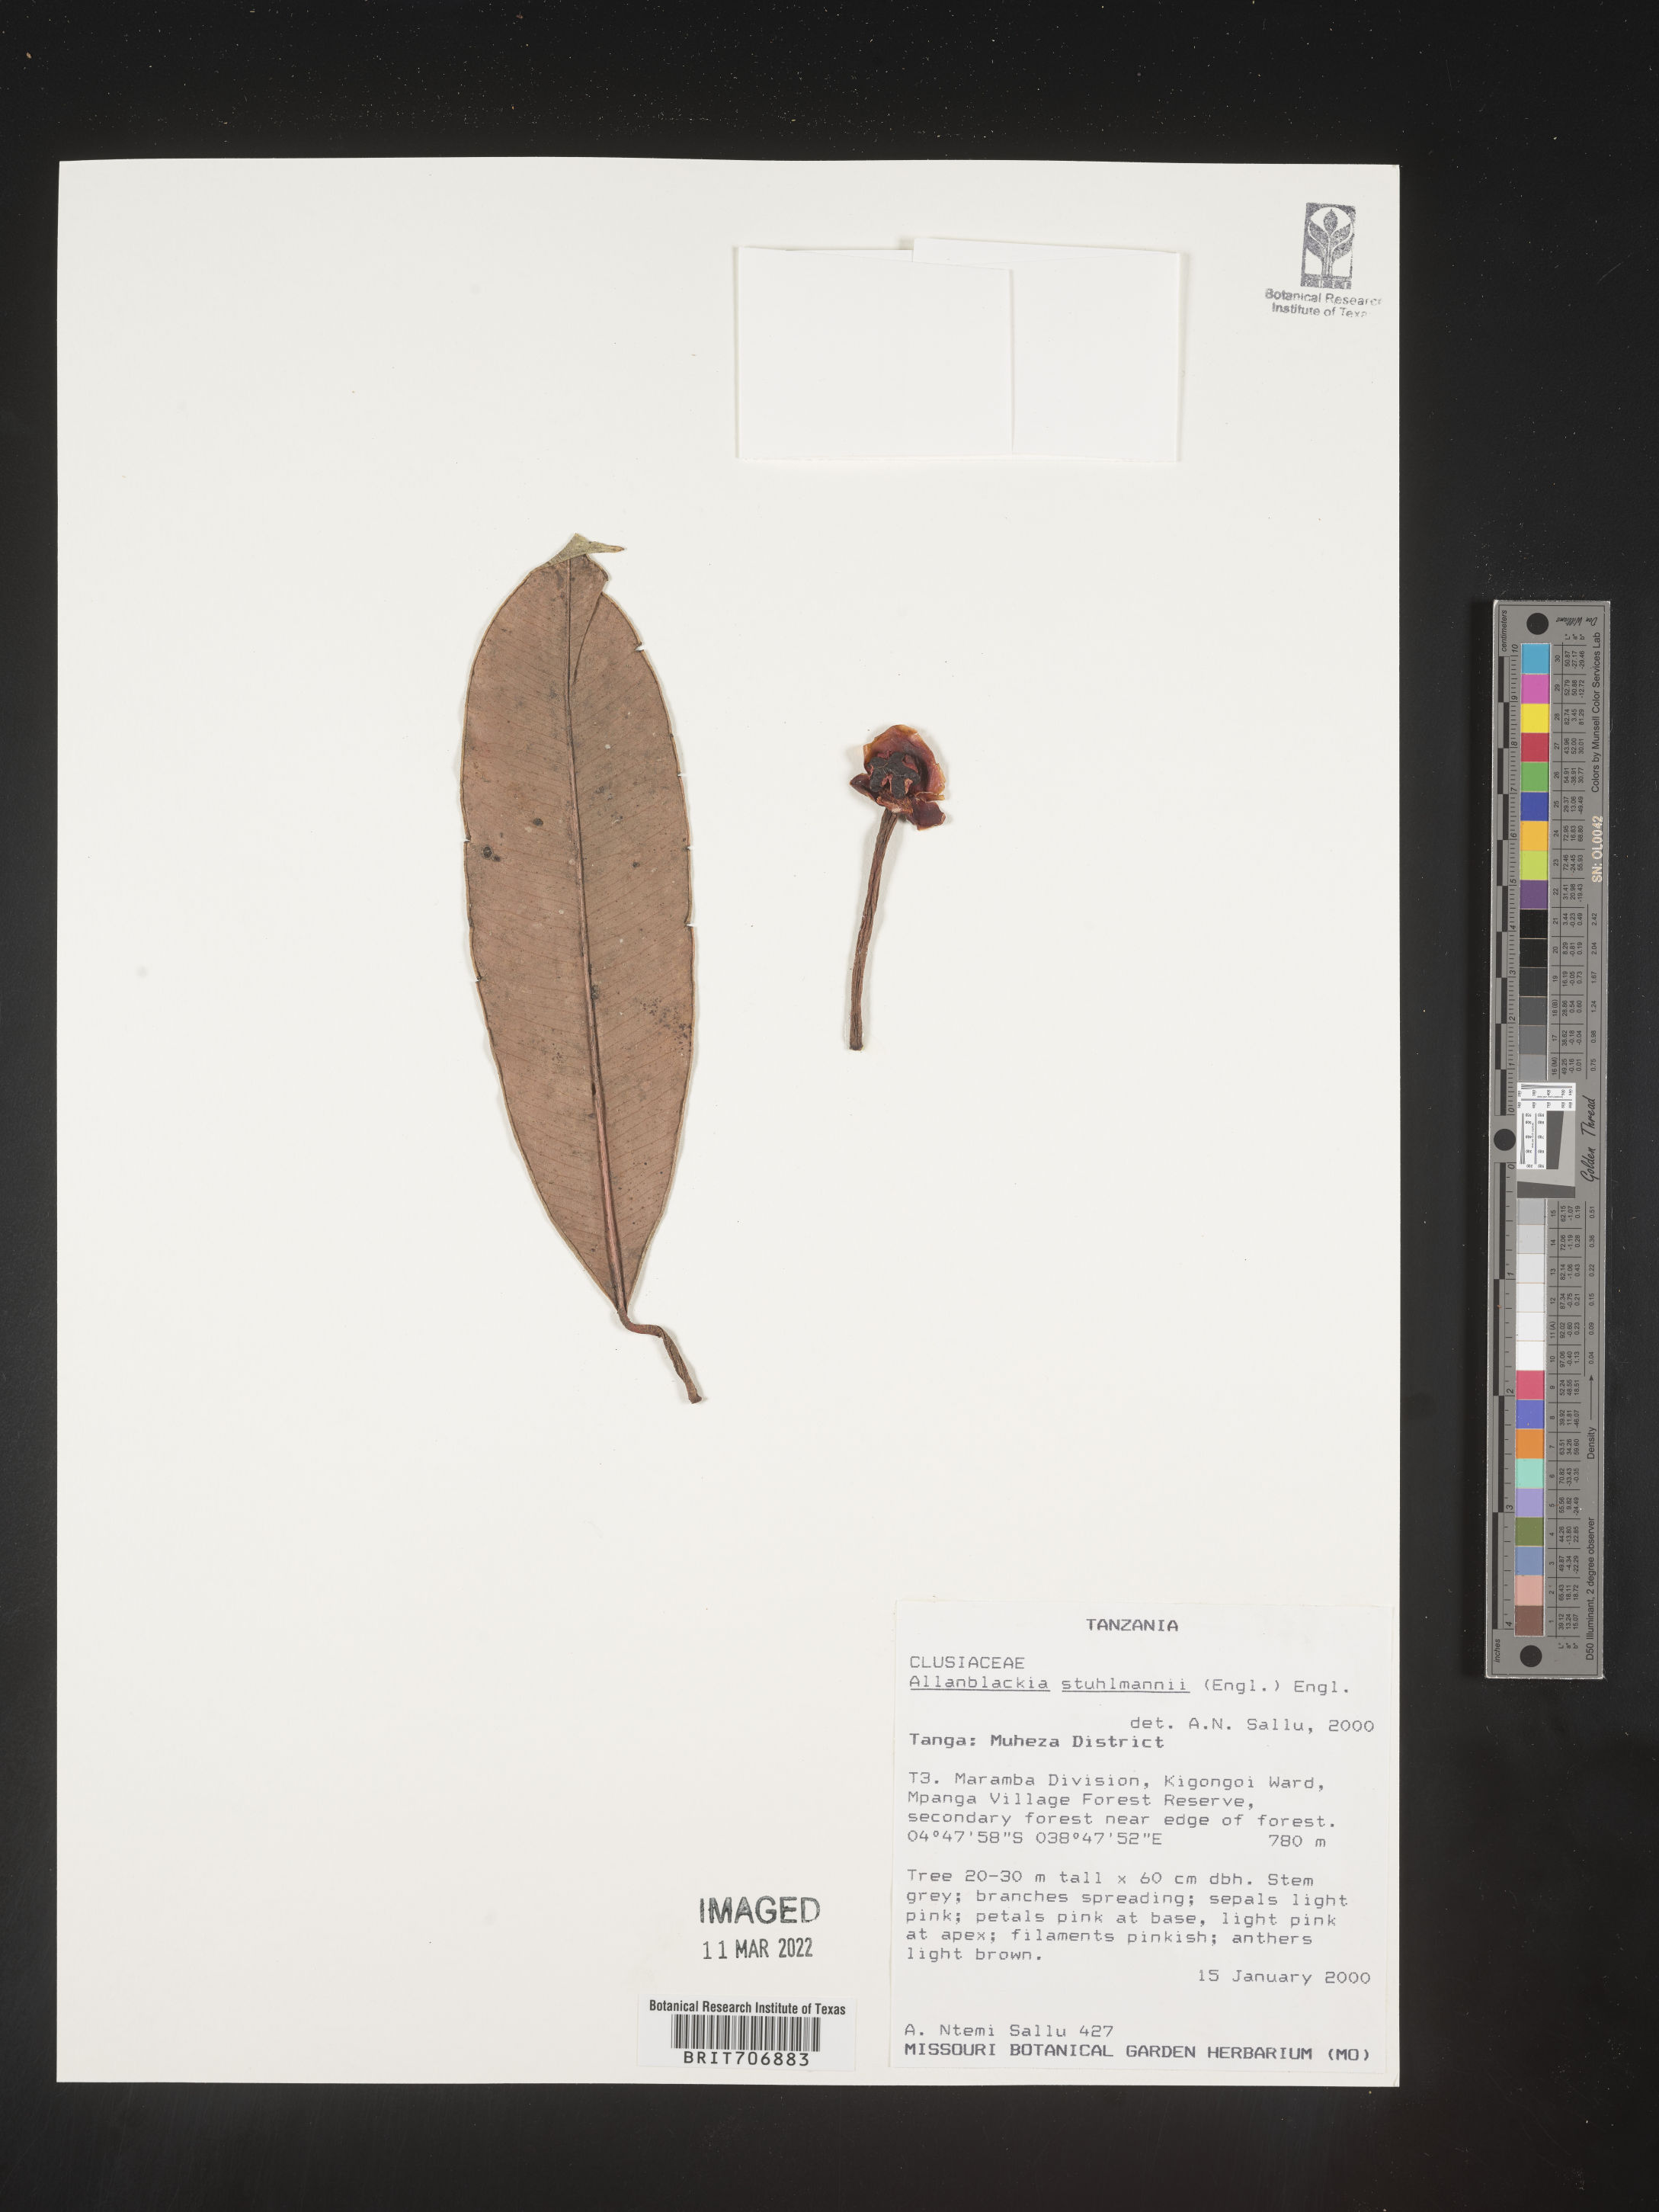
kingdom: Plantae
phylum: Tracheophyta
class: Magnoliopsida
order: Malpighiales
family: Clusiaceae
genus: Allanblackia
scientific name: Allanblackia
